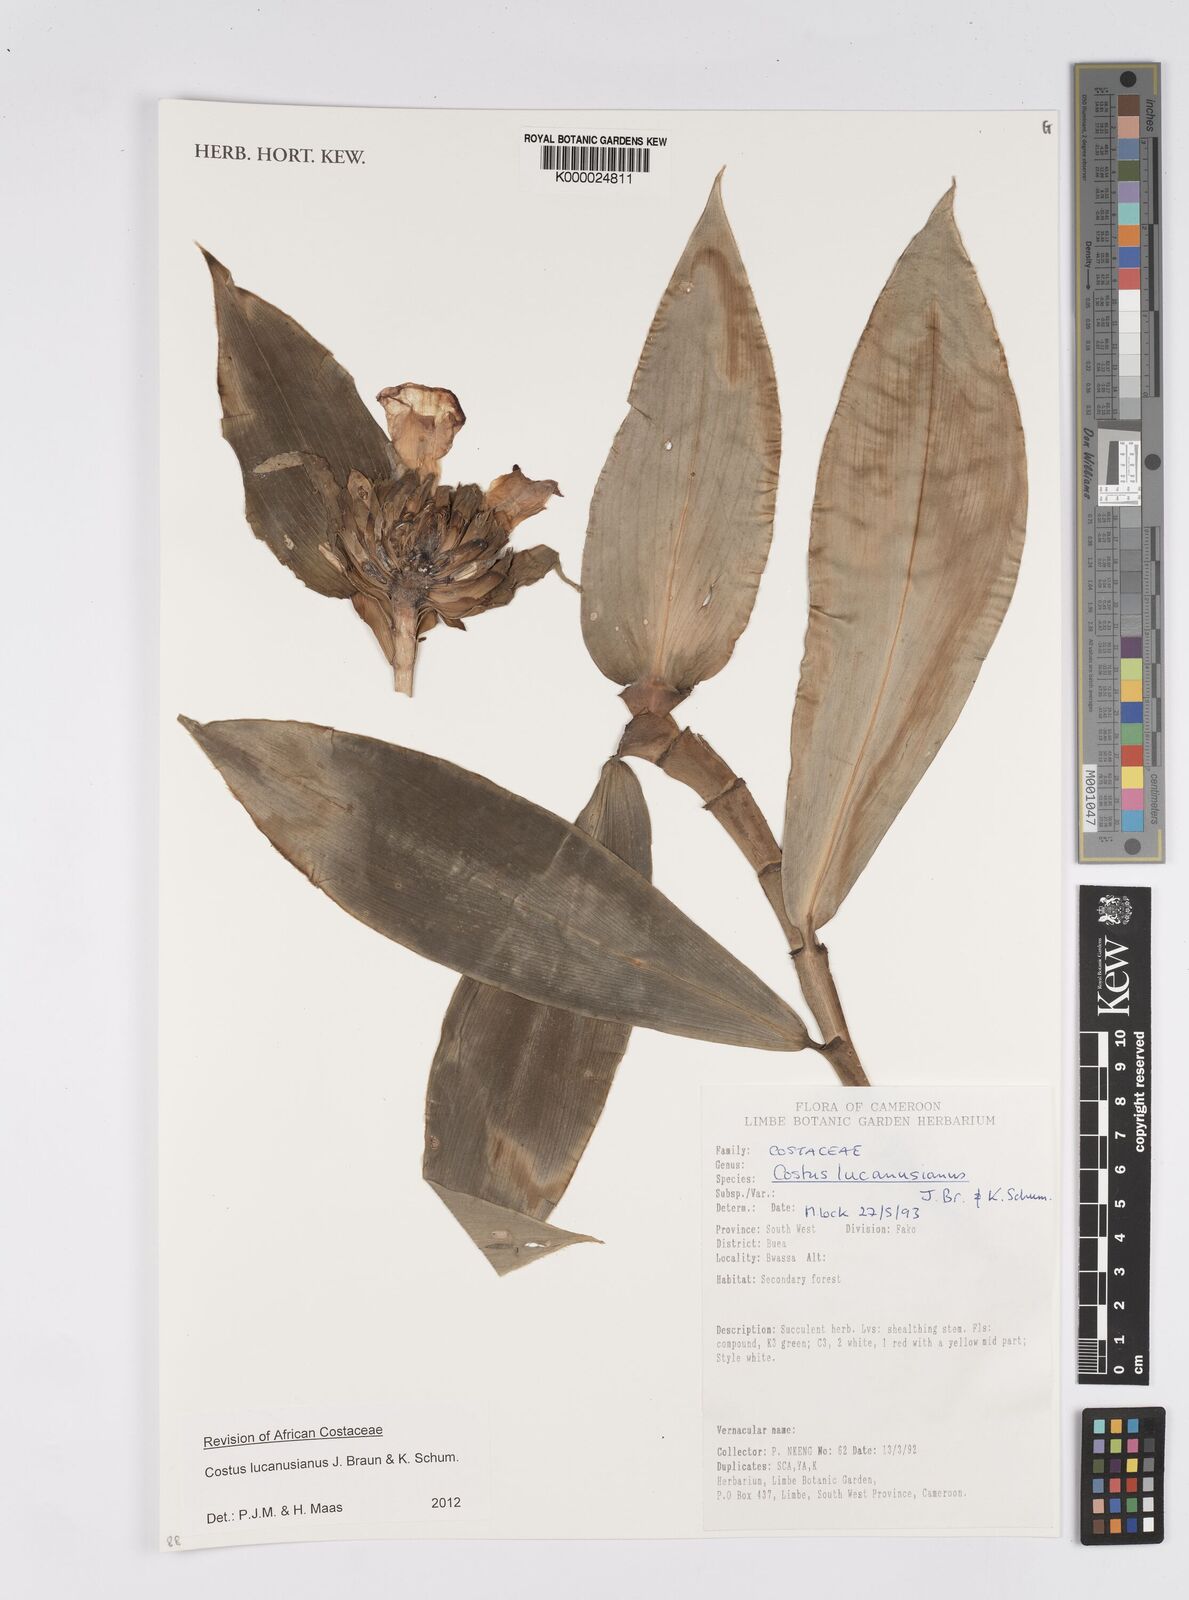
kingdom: Plantae
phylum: Tracheophyta
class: Liliopsida
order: Zingiberales
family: Costaceae
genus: Costus
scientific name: Costus lucanusianus
